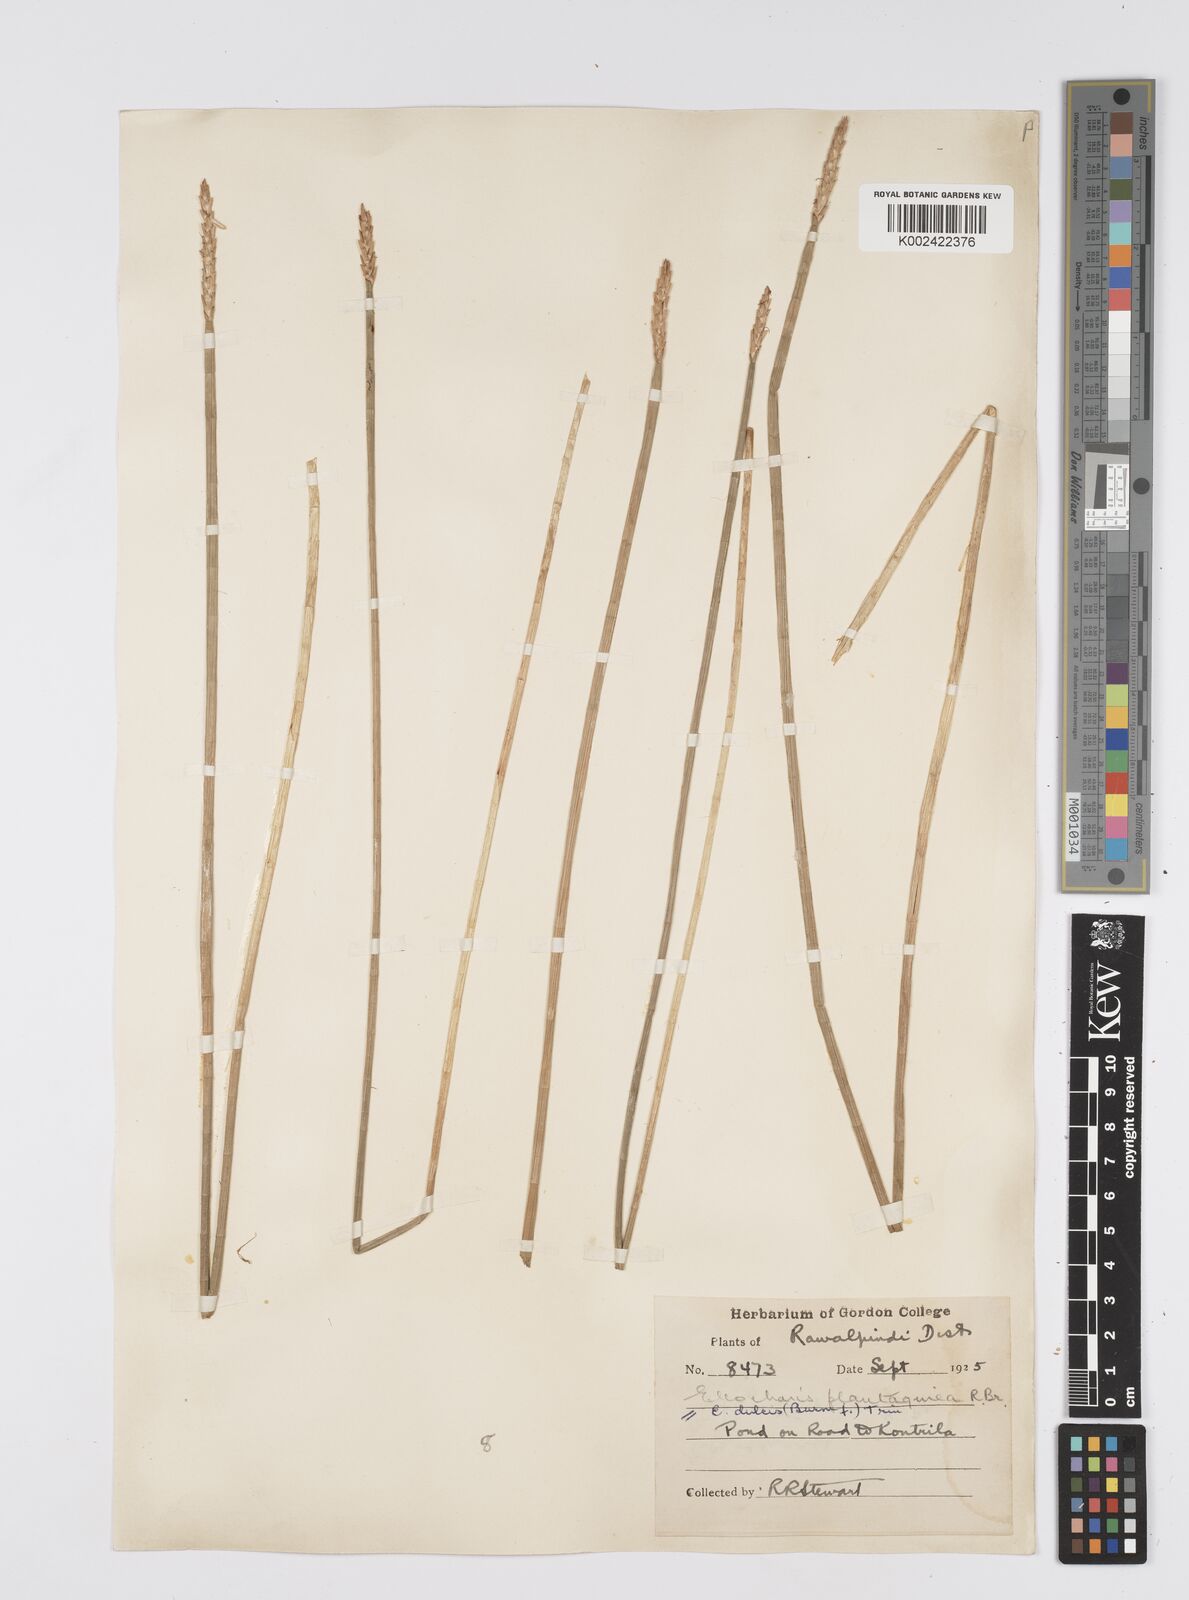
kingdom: Plantae
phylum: Tracheophyta
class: Liliopsida
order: Poales
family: Cyperaceae
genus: Eleocharis
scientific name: Eleocharis dulcis
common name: Chinese water chestnut
